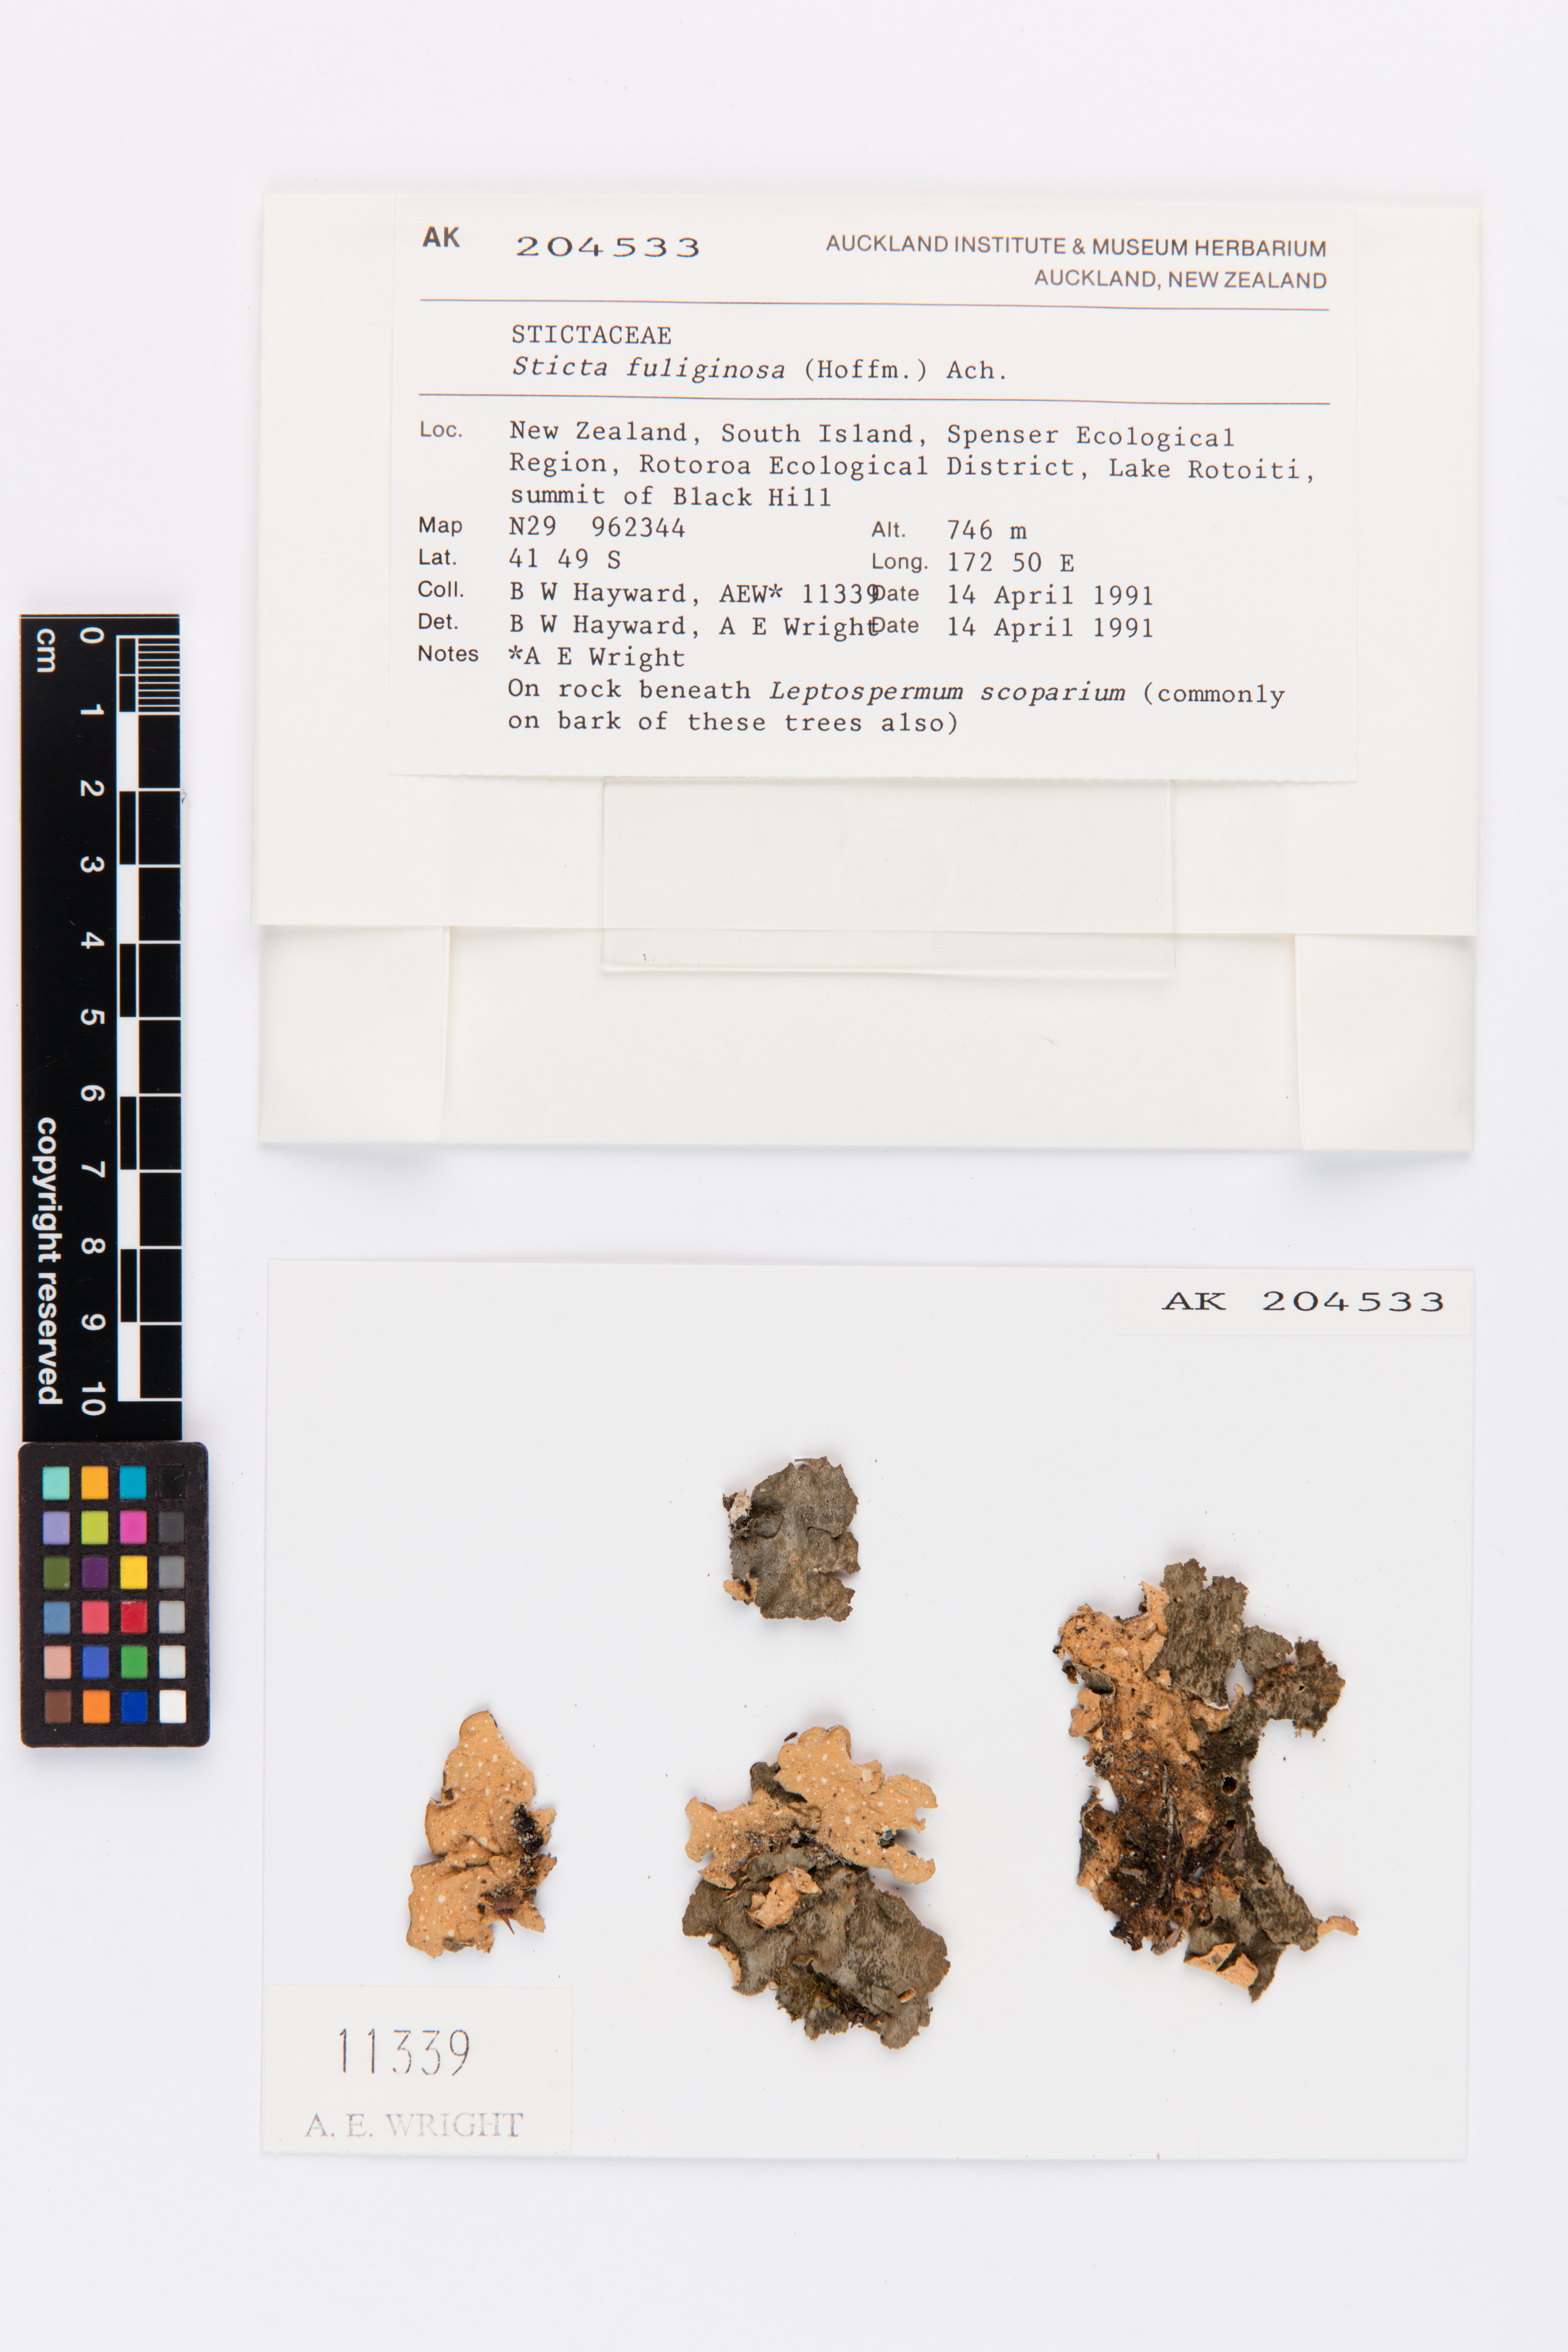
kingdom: Fungi
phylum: Ascomycota
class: Lecanoromycetes
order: Peltigerales
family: Lobariaceae
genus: Sticta
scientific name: Sticta fuliginosa
